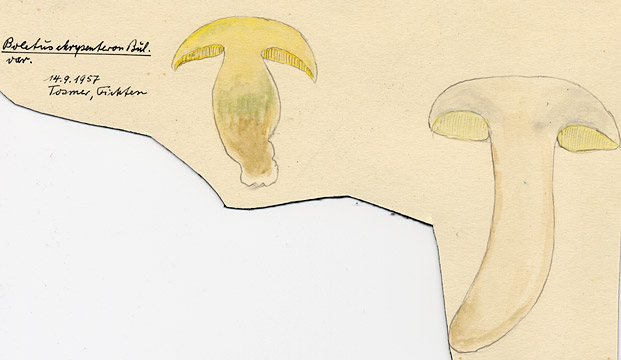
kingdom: Fungi
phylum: Basidiomycota
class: Agaricomycetes
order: Boletales
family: Boletaceae
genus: Xerocomellus
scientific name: Xerocomellus chrysenteron
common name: Red-cracking bolete
